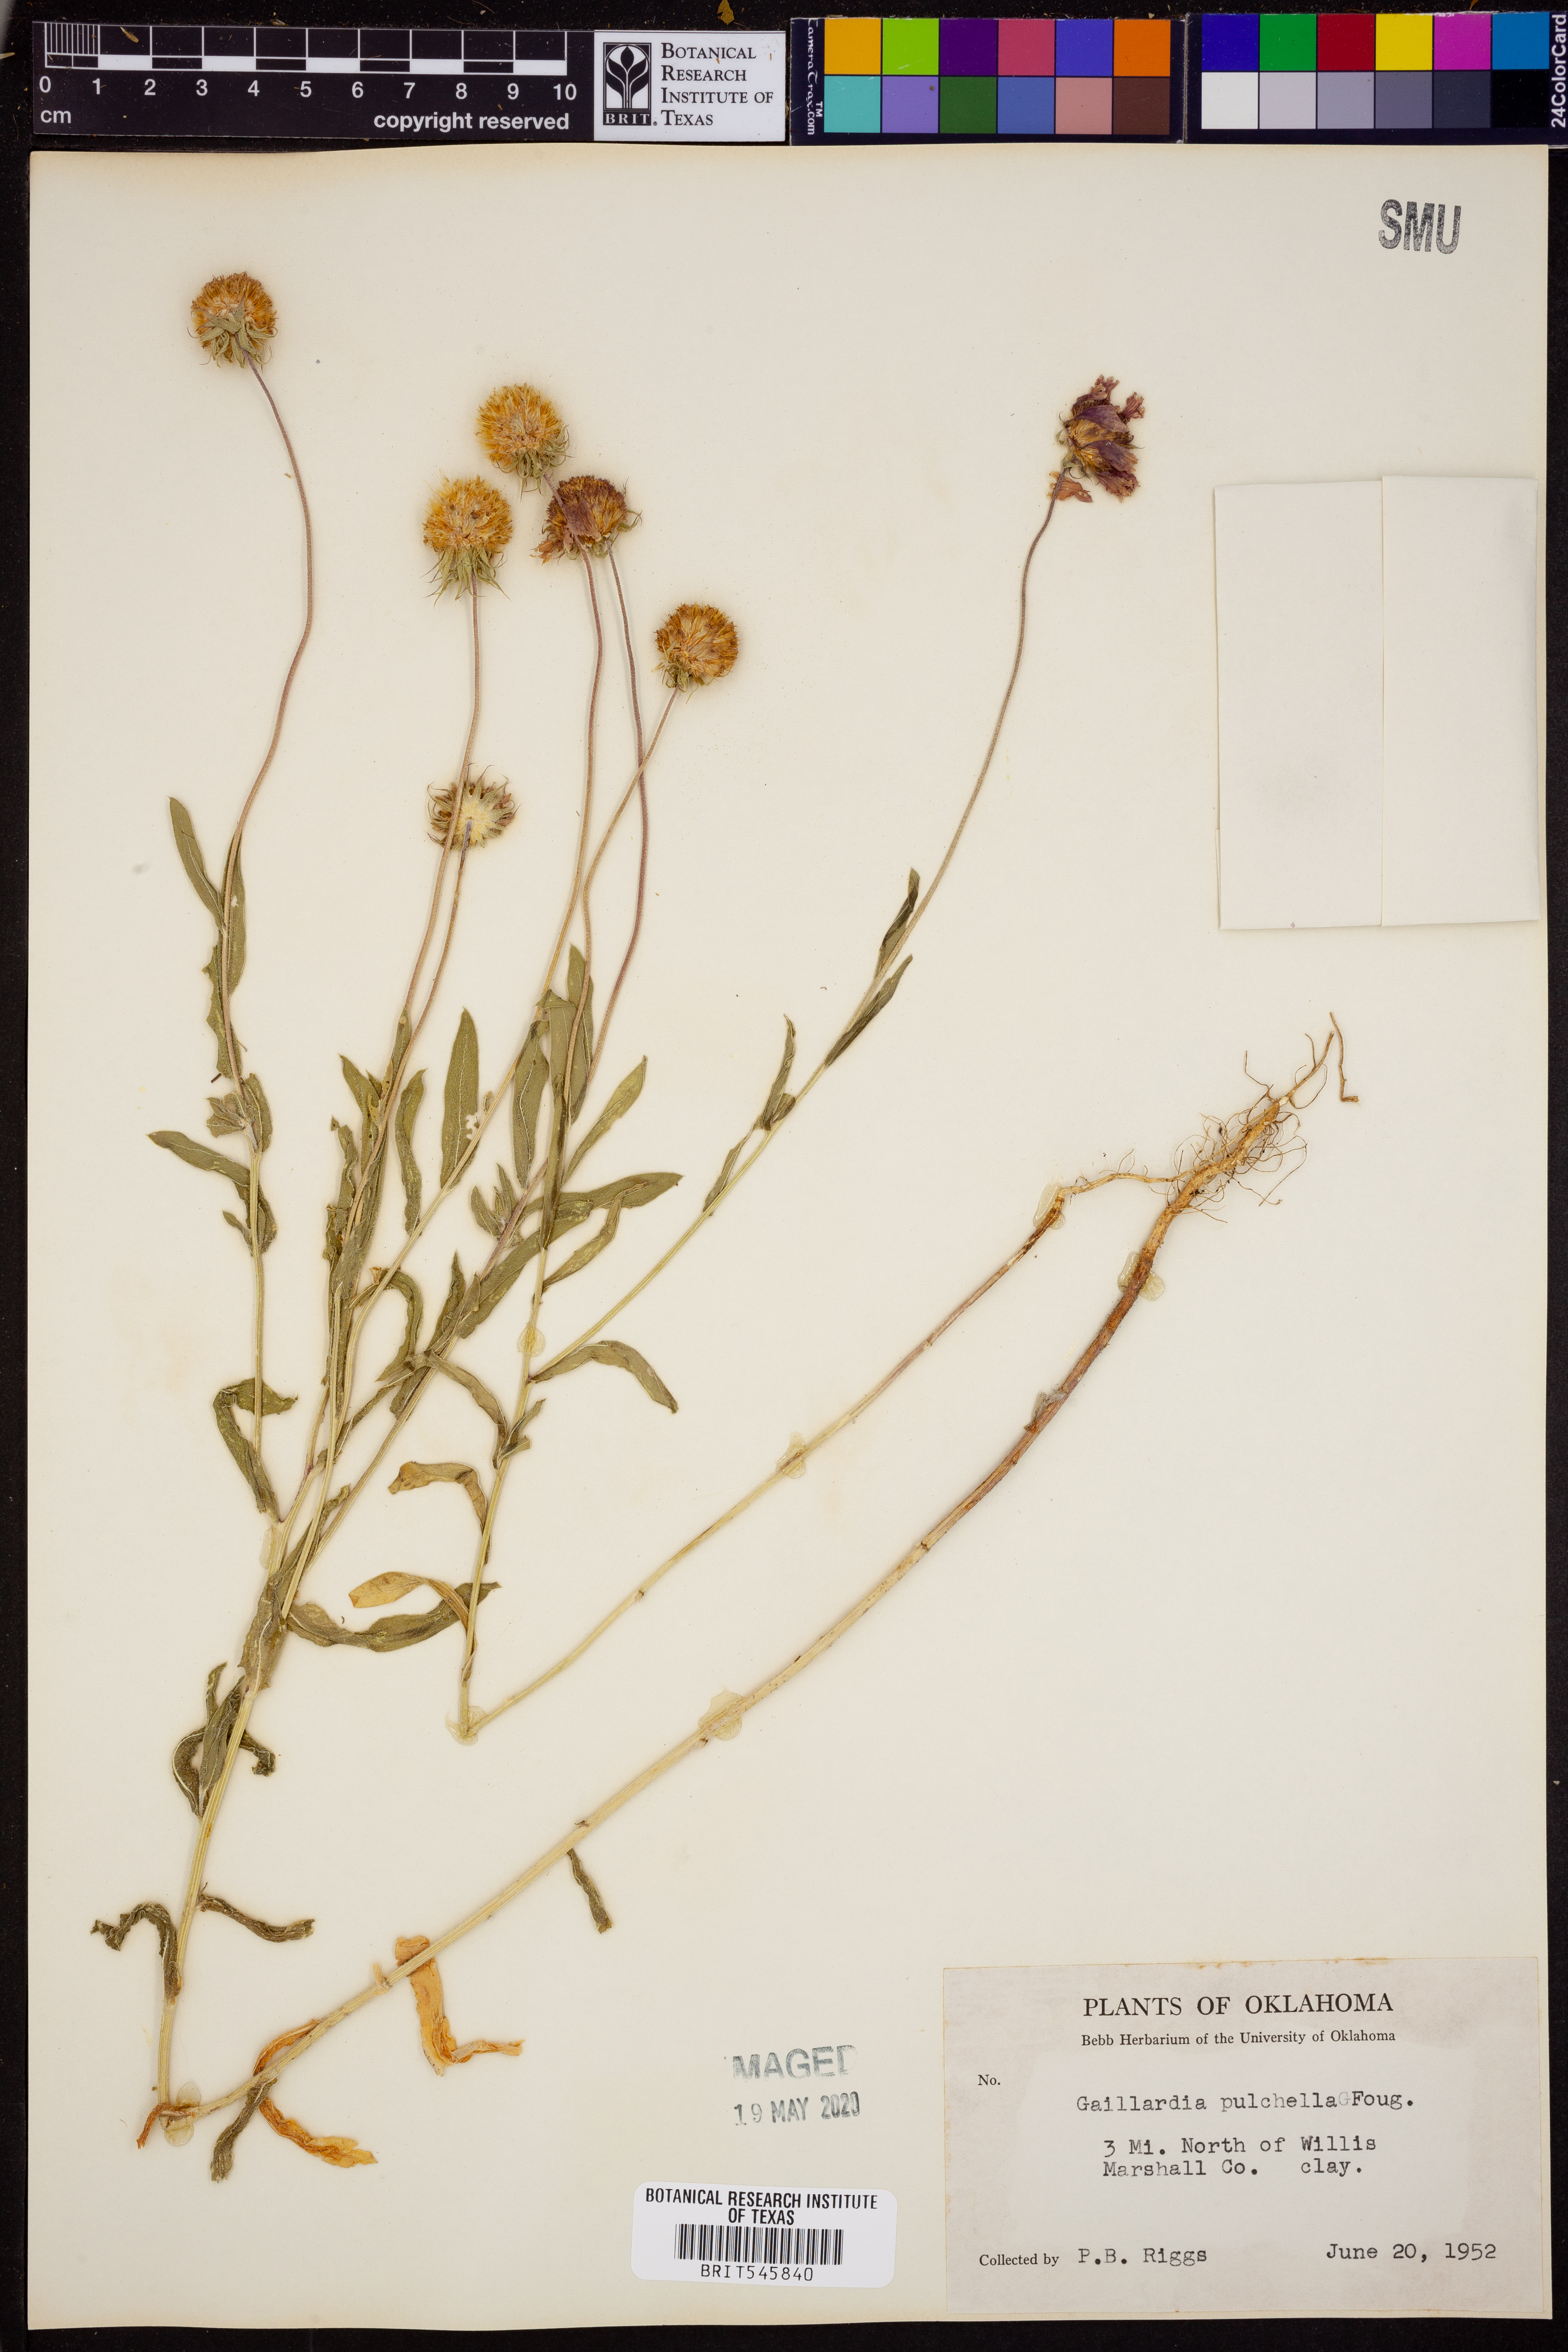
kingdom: Plantae
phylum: Tracheophyta
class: Magnoliopsida
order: Asterales
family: Asteraceae
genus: Gaillardia
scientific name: Gaillardia pulchella
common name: Firewheel
